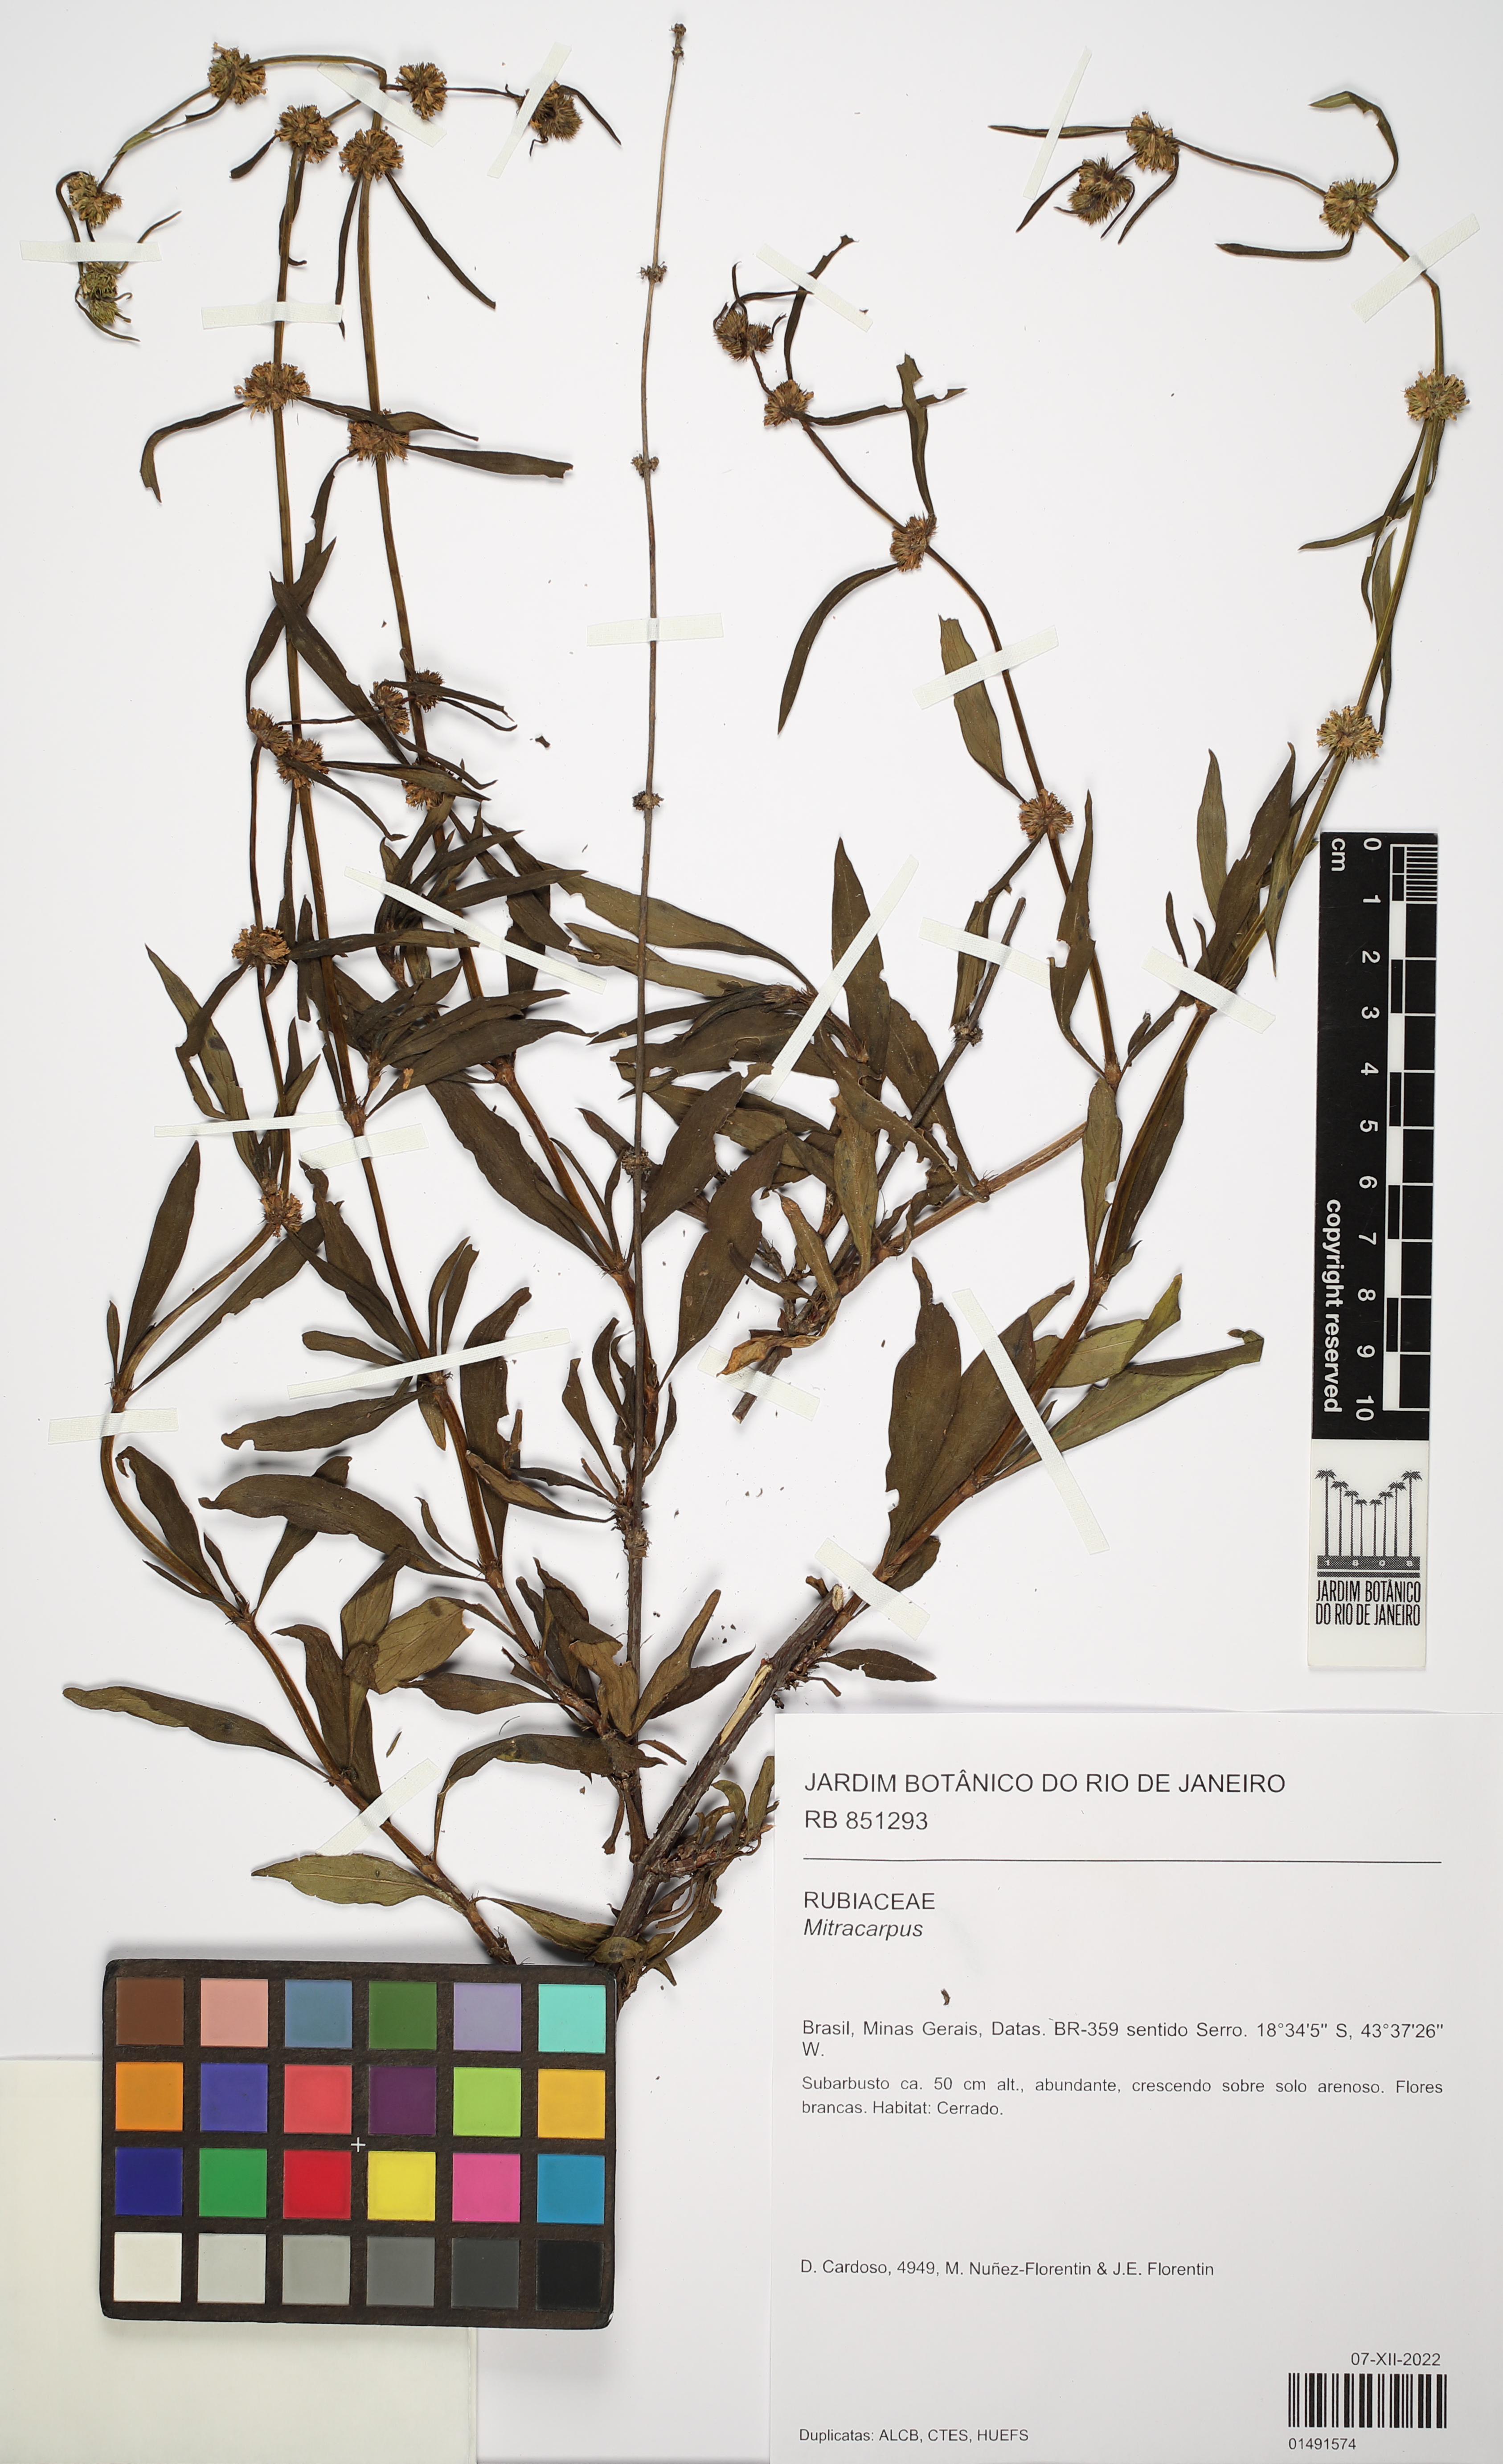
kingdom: Plantae
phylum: Tracheophyta
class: Magnoliopsida
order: Gentianales
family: Rubiaceae
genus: Mitracarpus
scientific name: Mitracarpus
